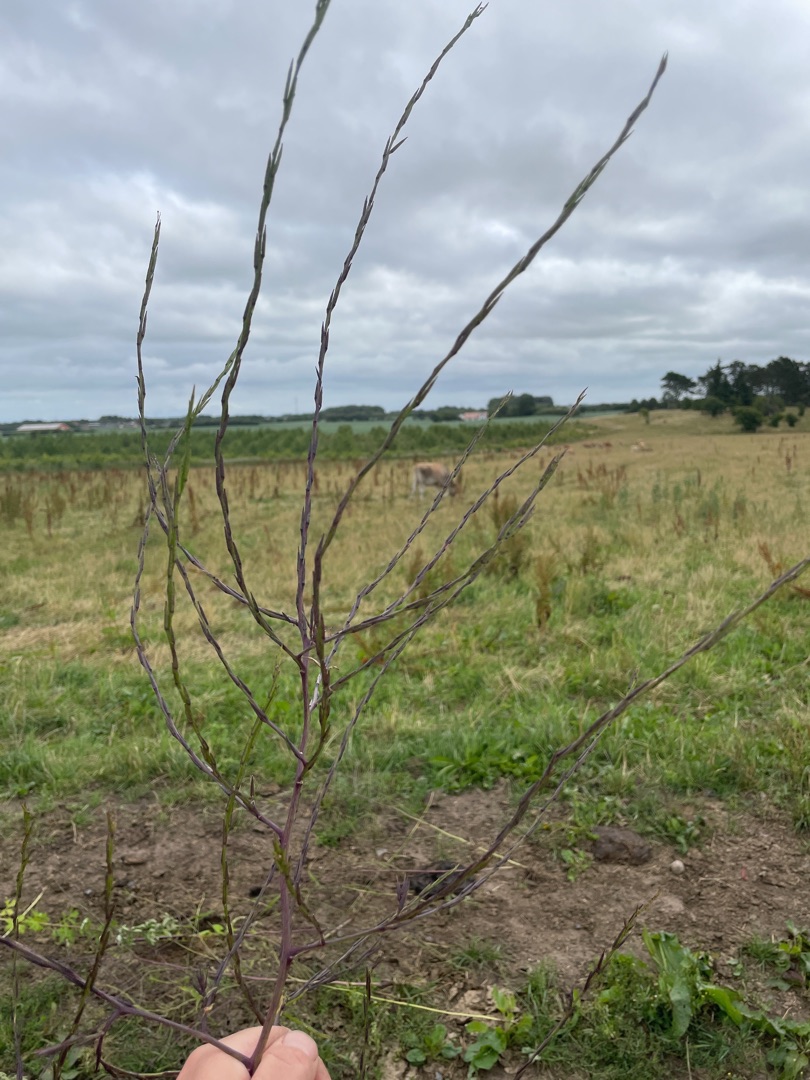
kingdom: Plantae
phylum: Tracheophyta
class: Magnoliopsida
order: Brassicales
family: Brassicaceae
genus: Sisymbrium
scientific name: Sisymbrium officinale
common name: Rank vejsennep
